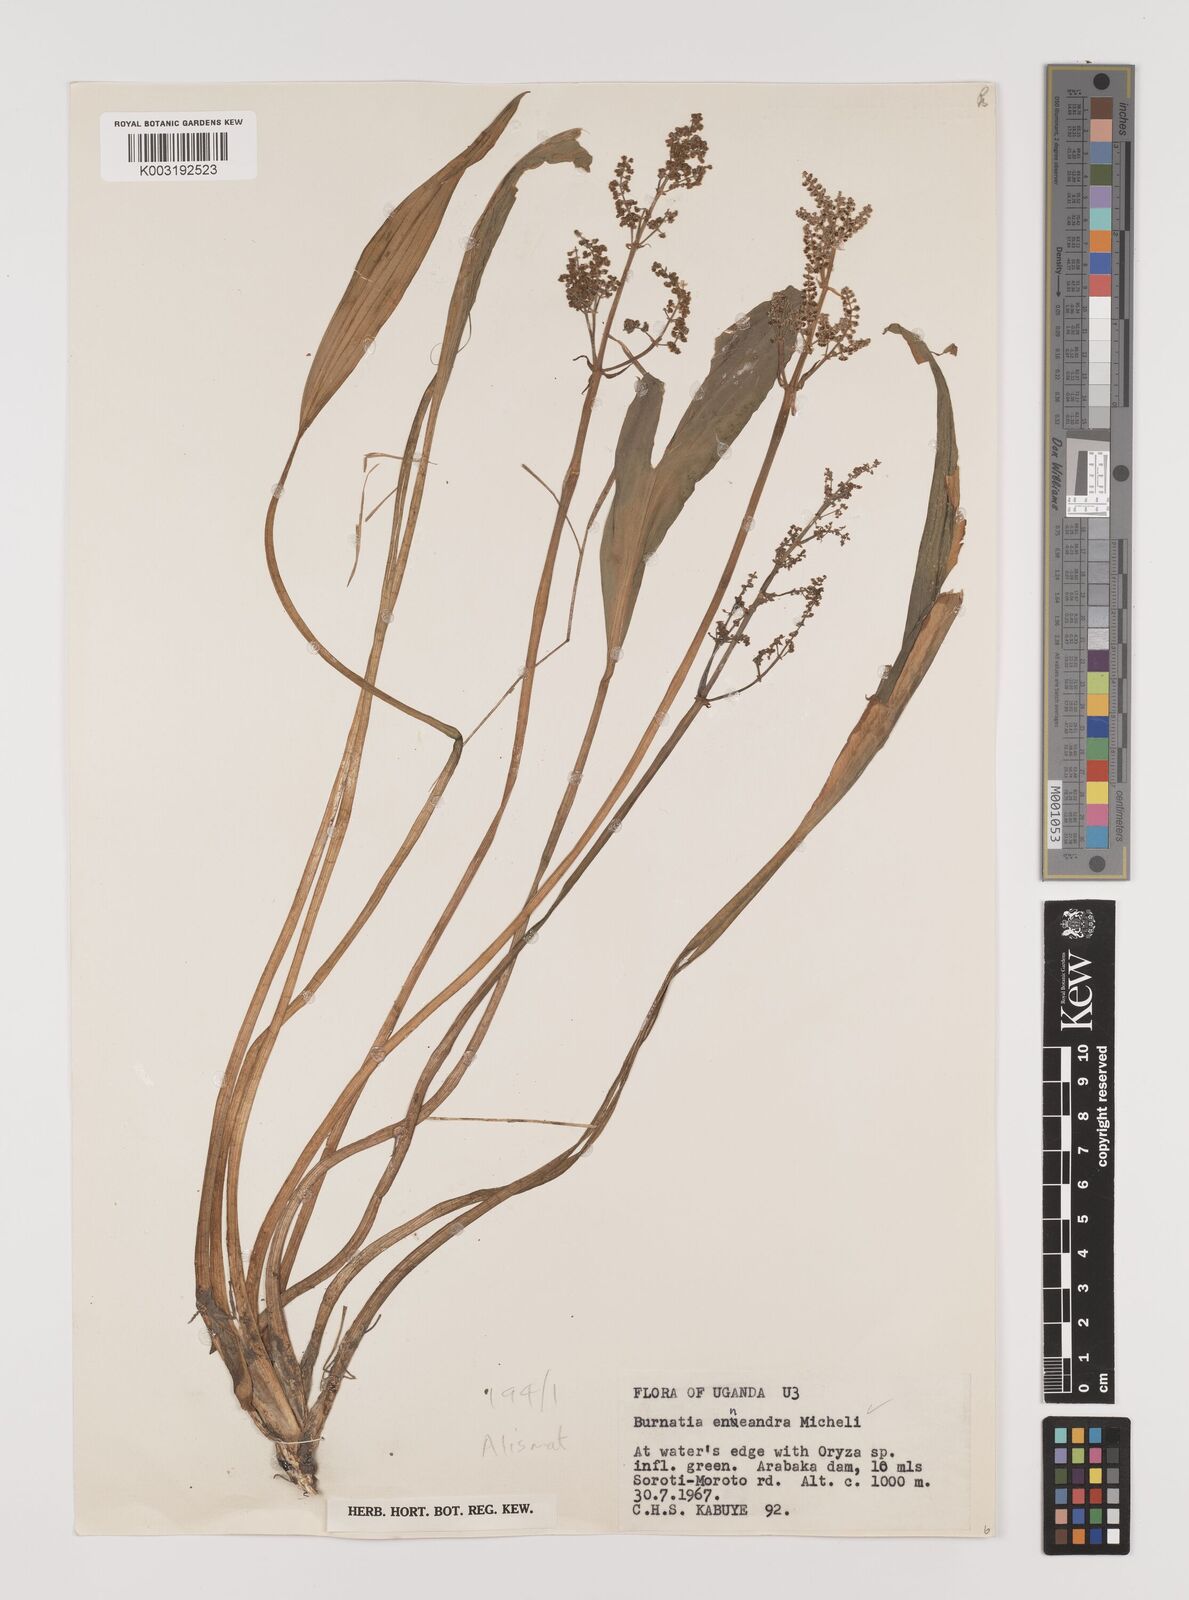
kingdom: Plantae
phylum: Tracheophyta
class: Liliopsida
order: Alismatales
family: Alismataceae
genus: Burnatia
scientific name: Burnatia enneandra
